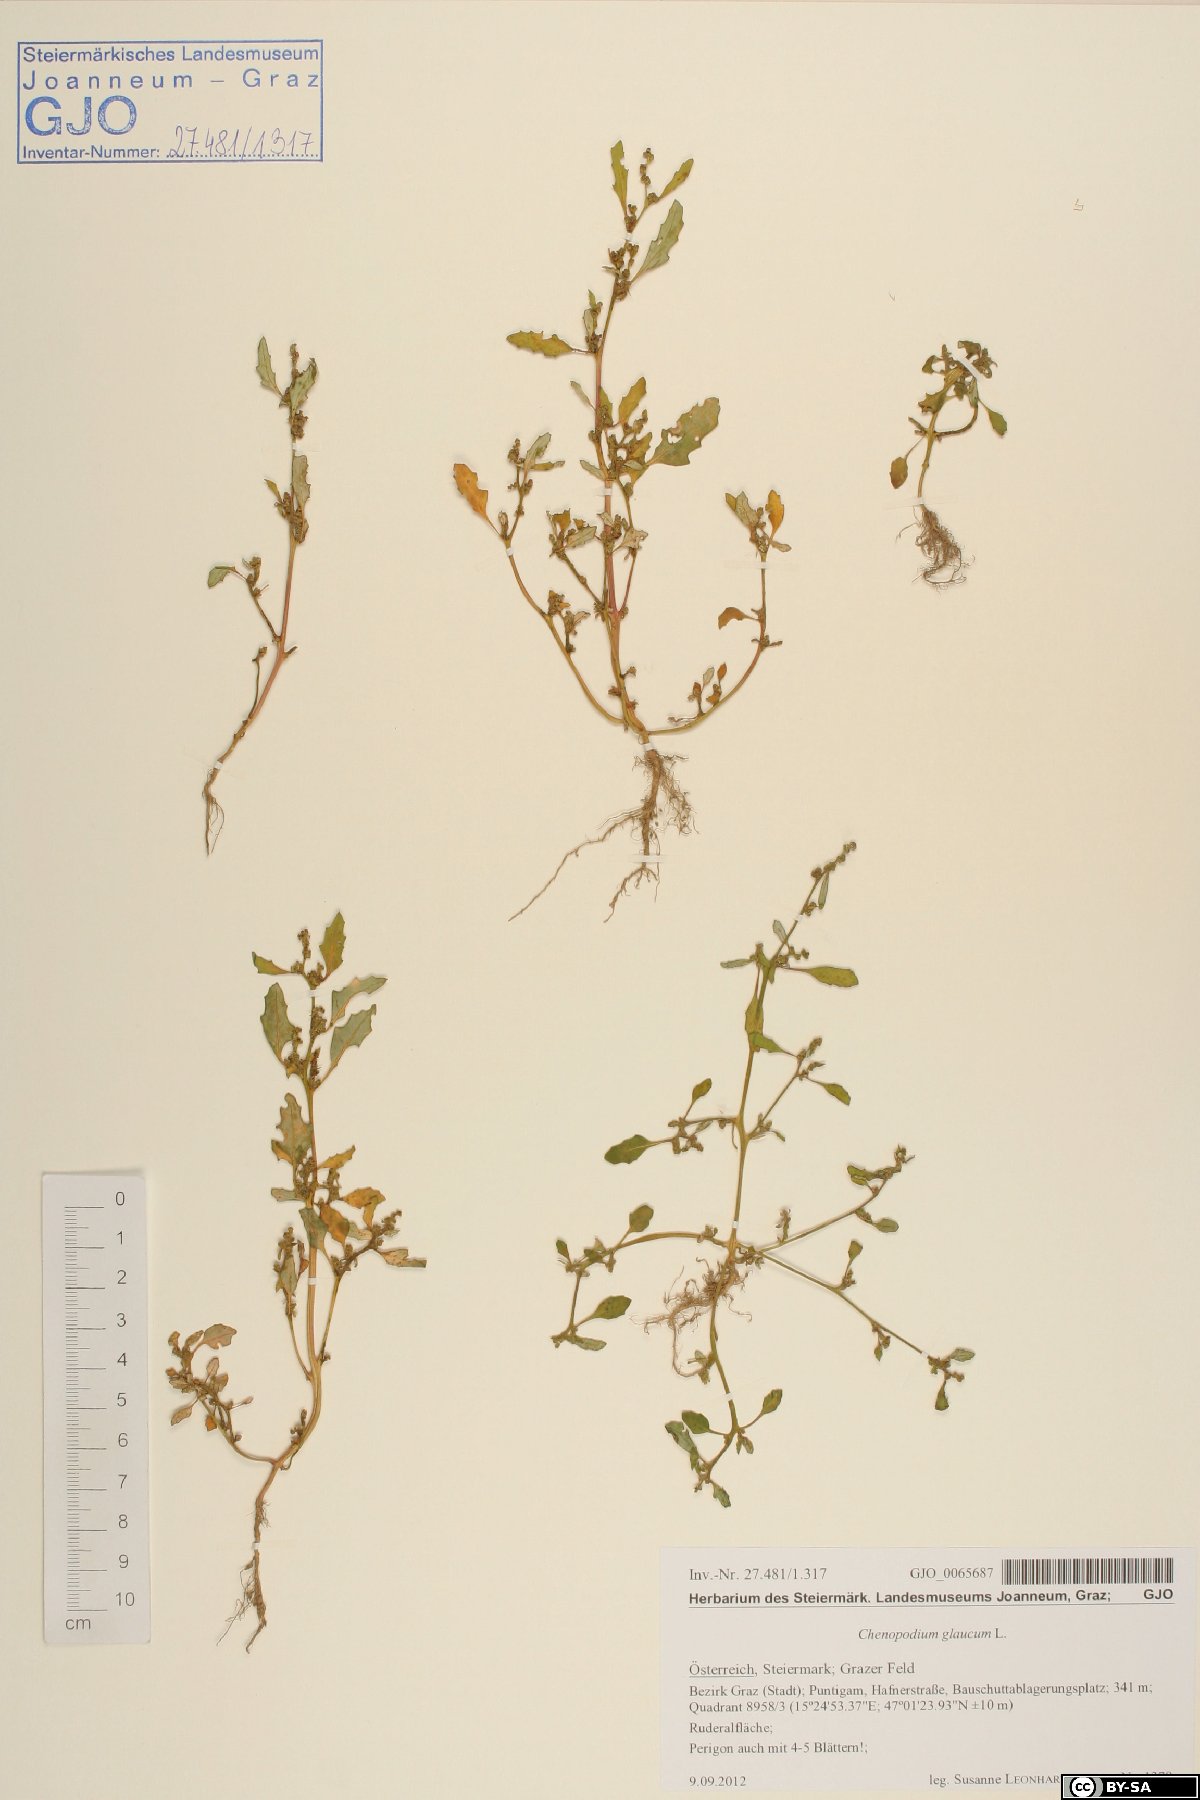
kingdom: Plantae
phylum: Tracheophyta
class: Magnoliopsida
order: Caryophyllales
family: Amaranthaceae
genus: Oxybasis
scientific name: Oxybasis glauca
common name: Glaucous goosefoot
